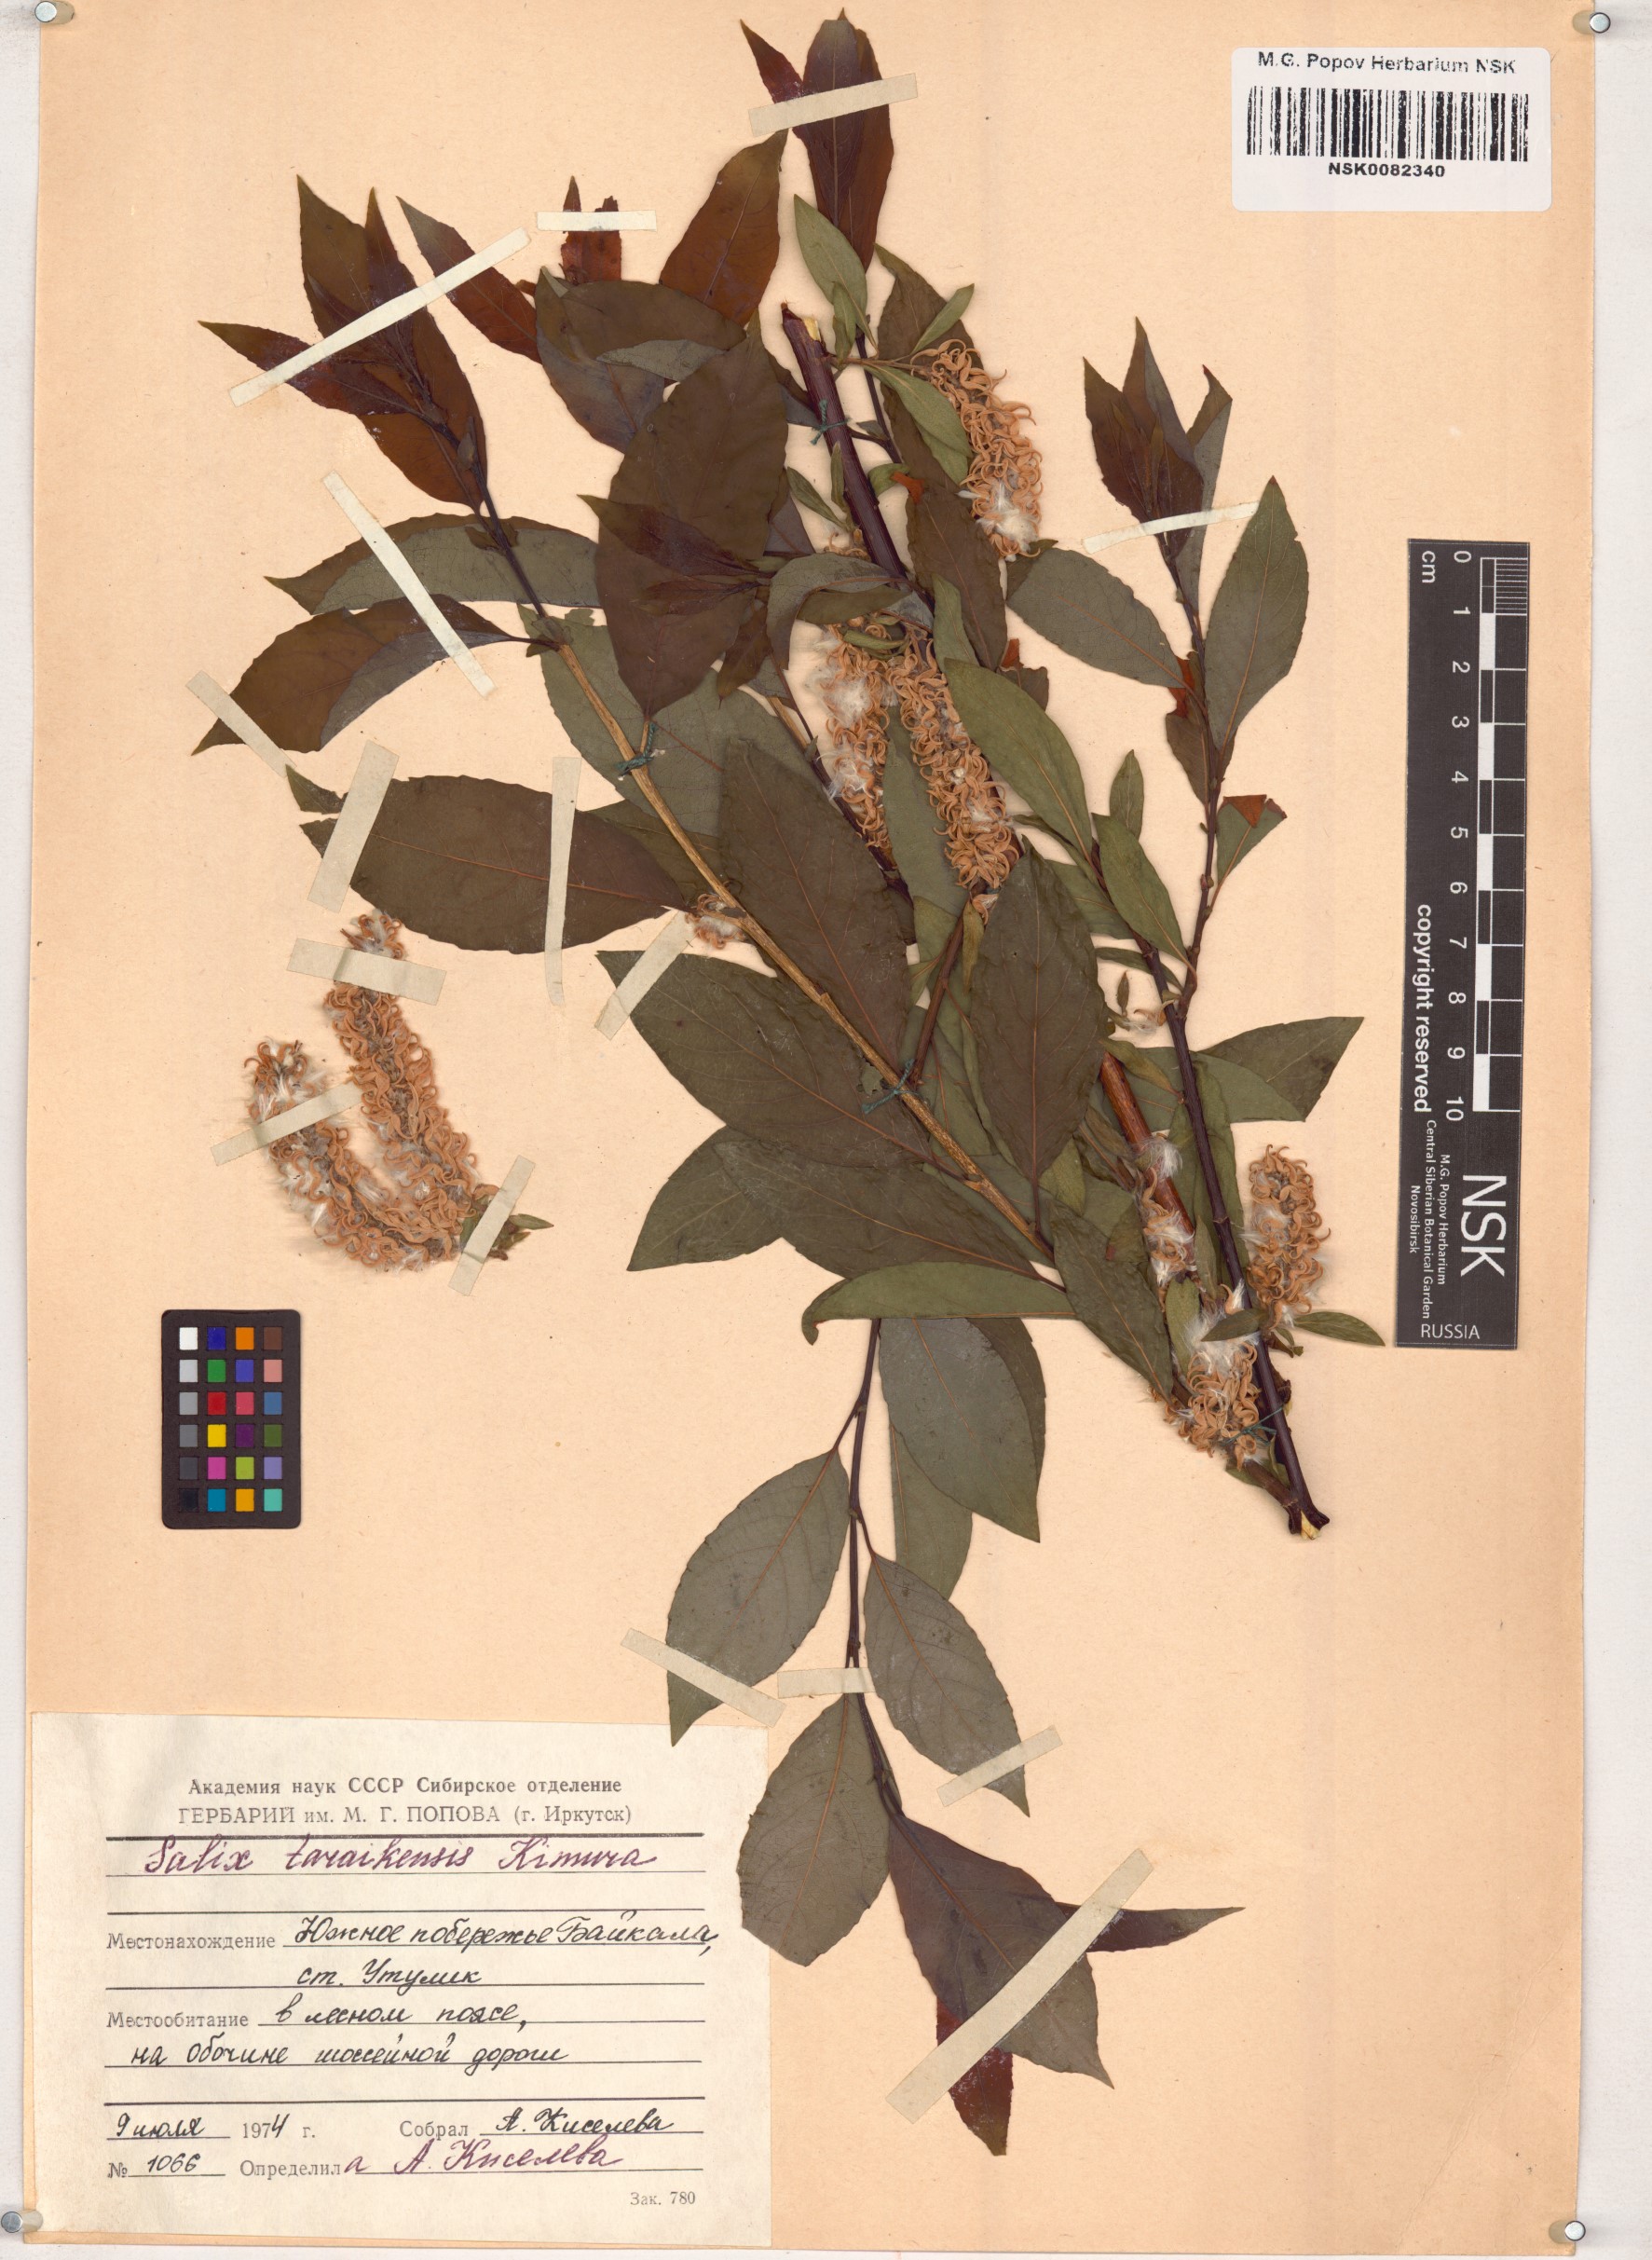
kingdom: Plantae
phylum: Tracheophyta
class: Magnoliopsida
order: Malpighiales
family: Salicaceae
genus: Salix
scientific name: Salix taraikensis
